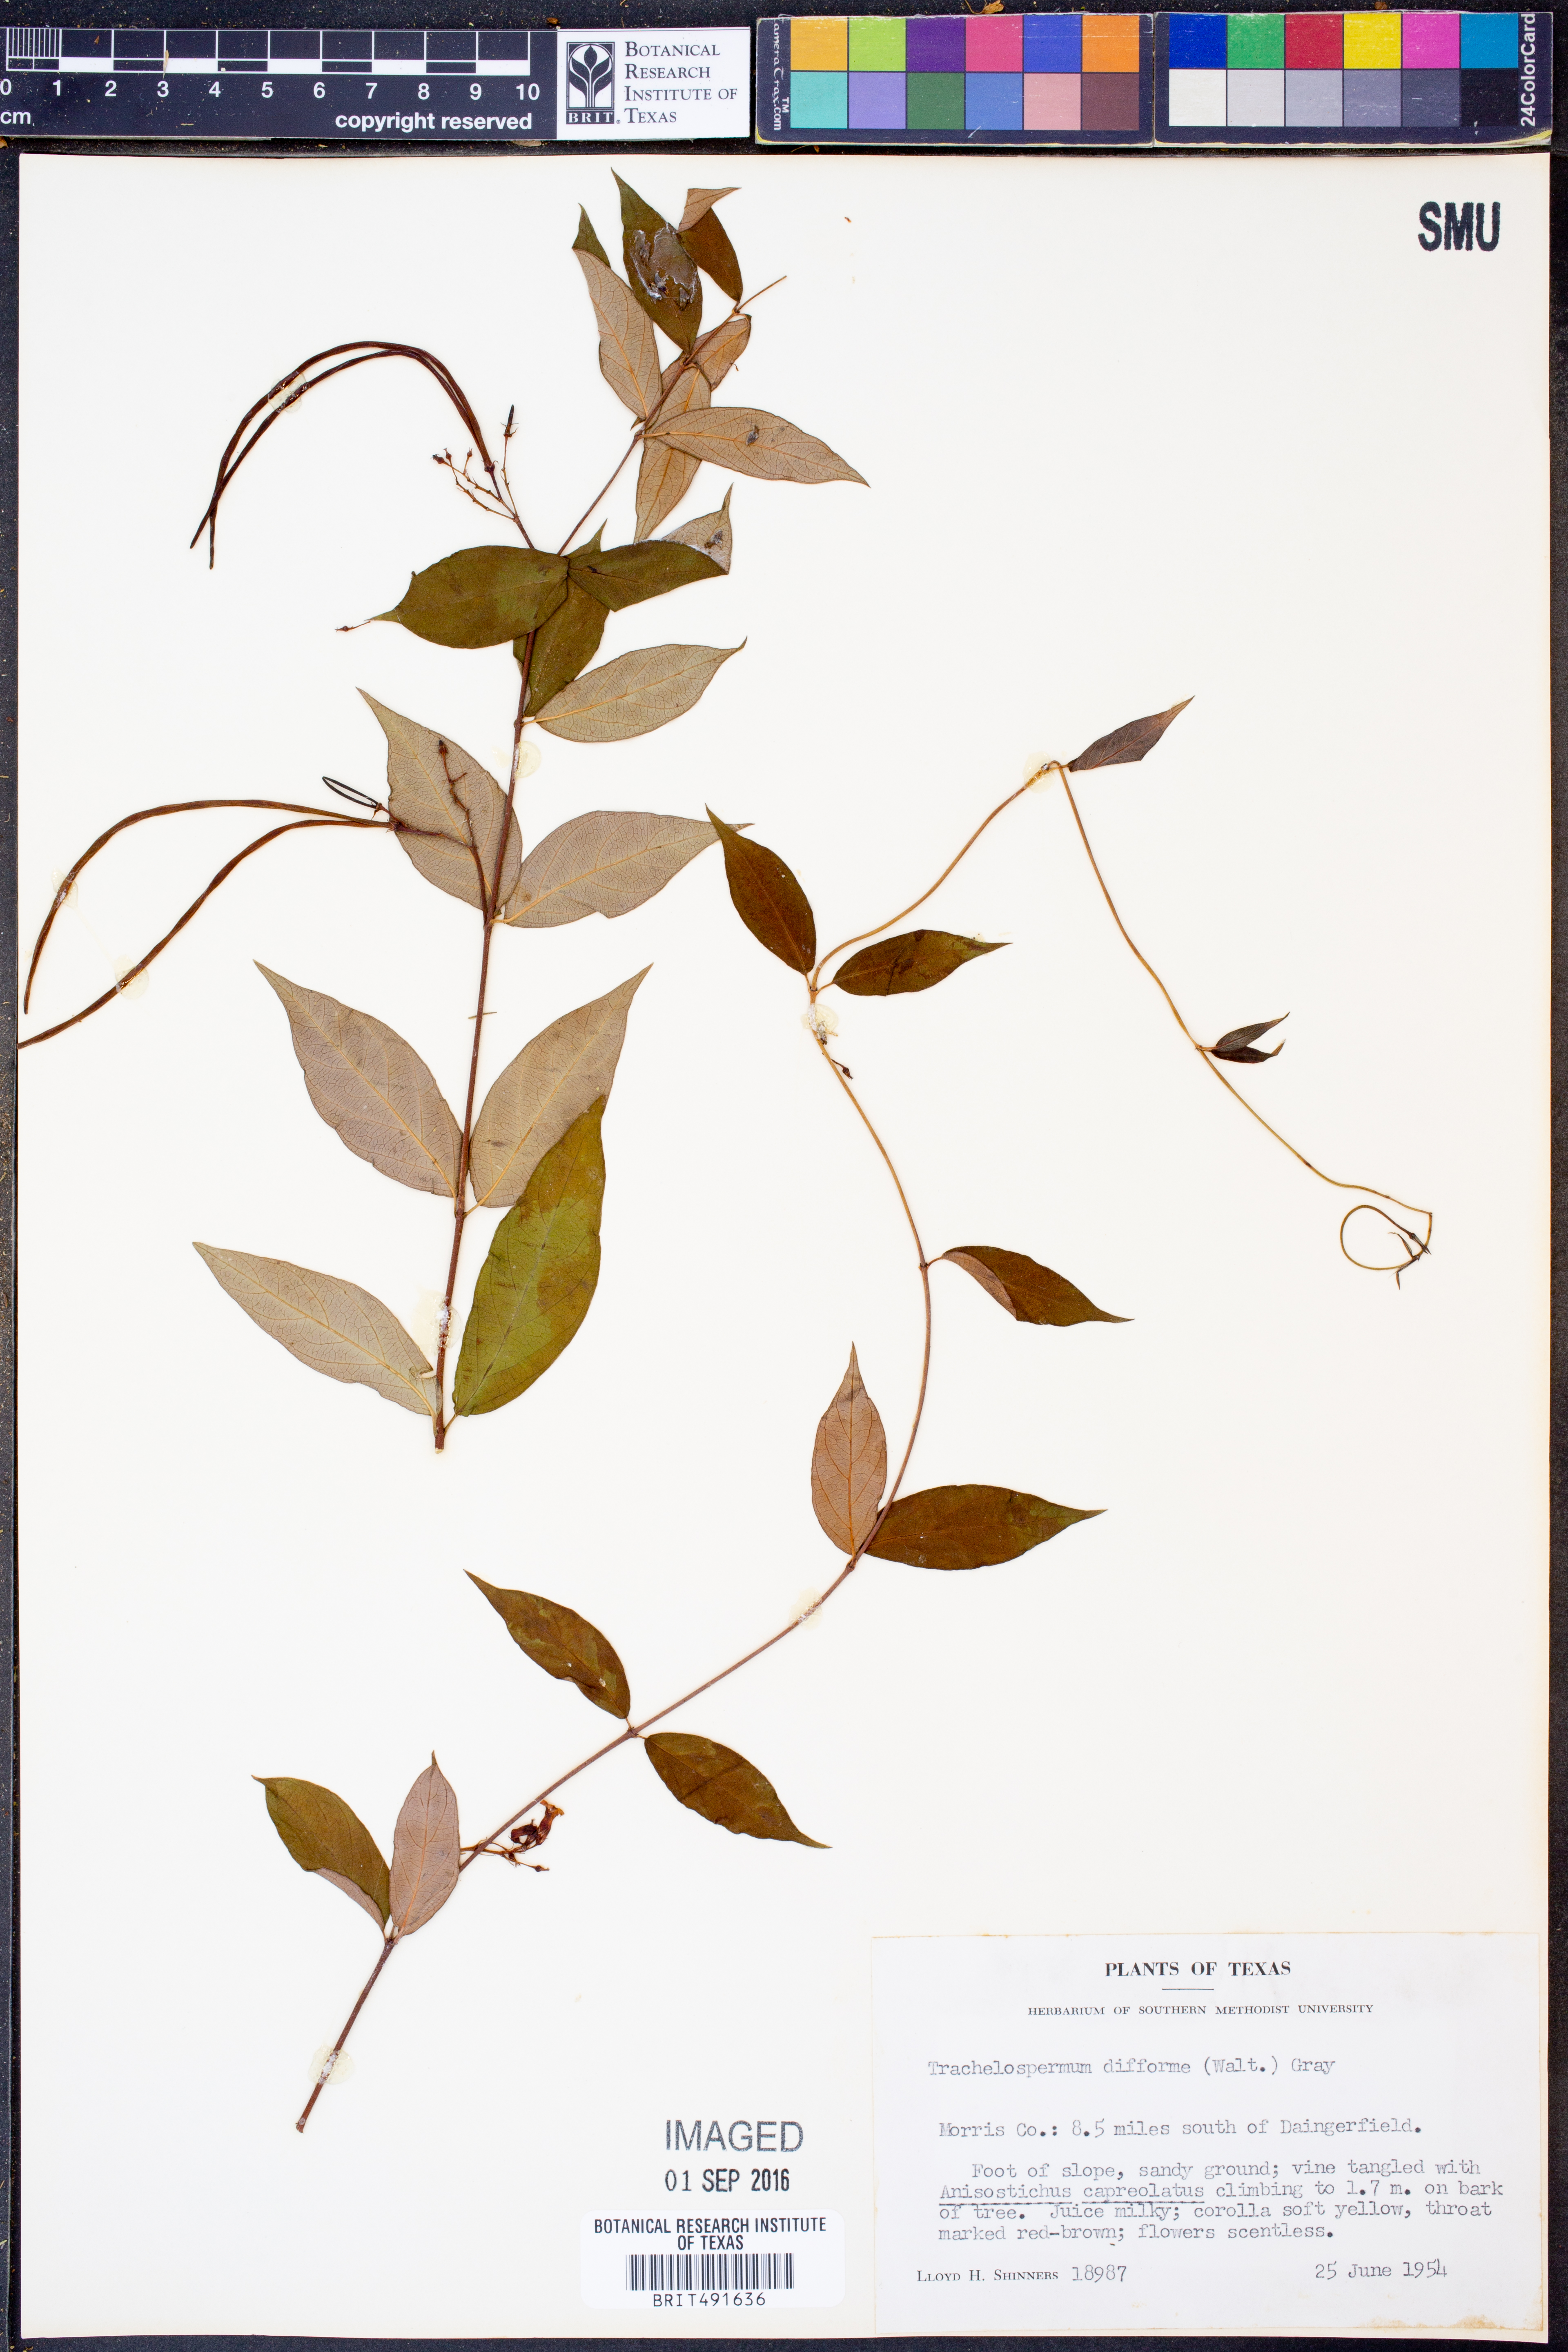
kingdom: Plantae
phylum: Tracheophyta
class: Magnoliopsida
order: Gentianales
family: Apocynaceae
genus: Thyrsanthella
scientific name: Thyrsanthella difformis
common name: Climbing dogbane
